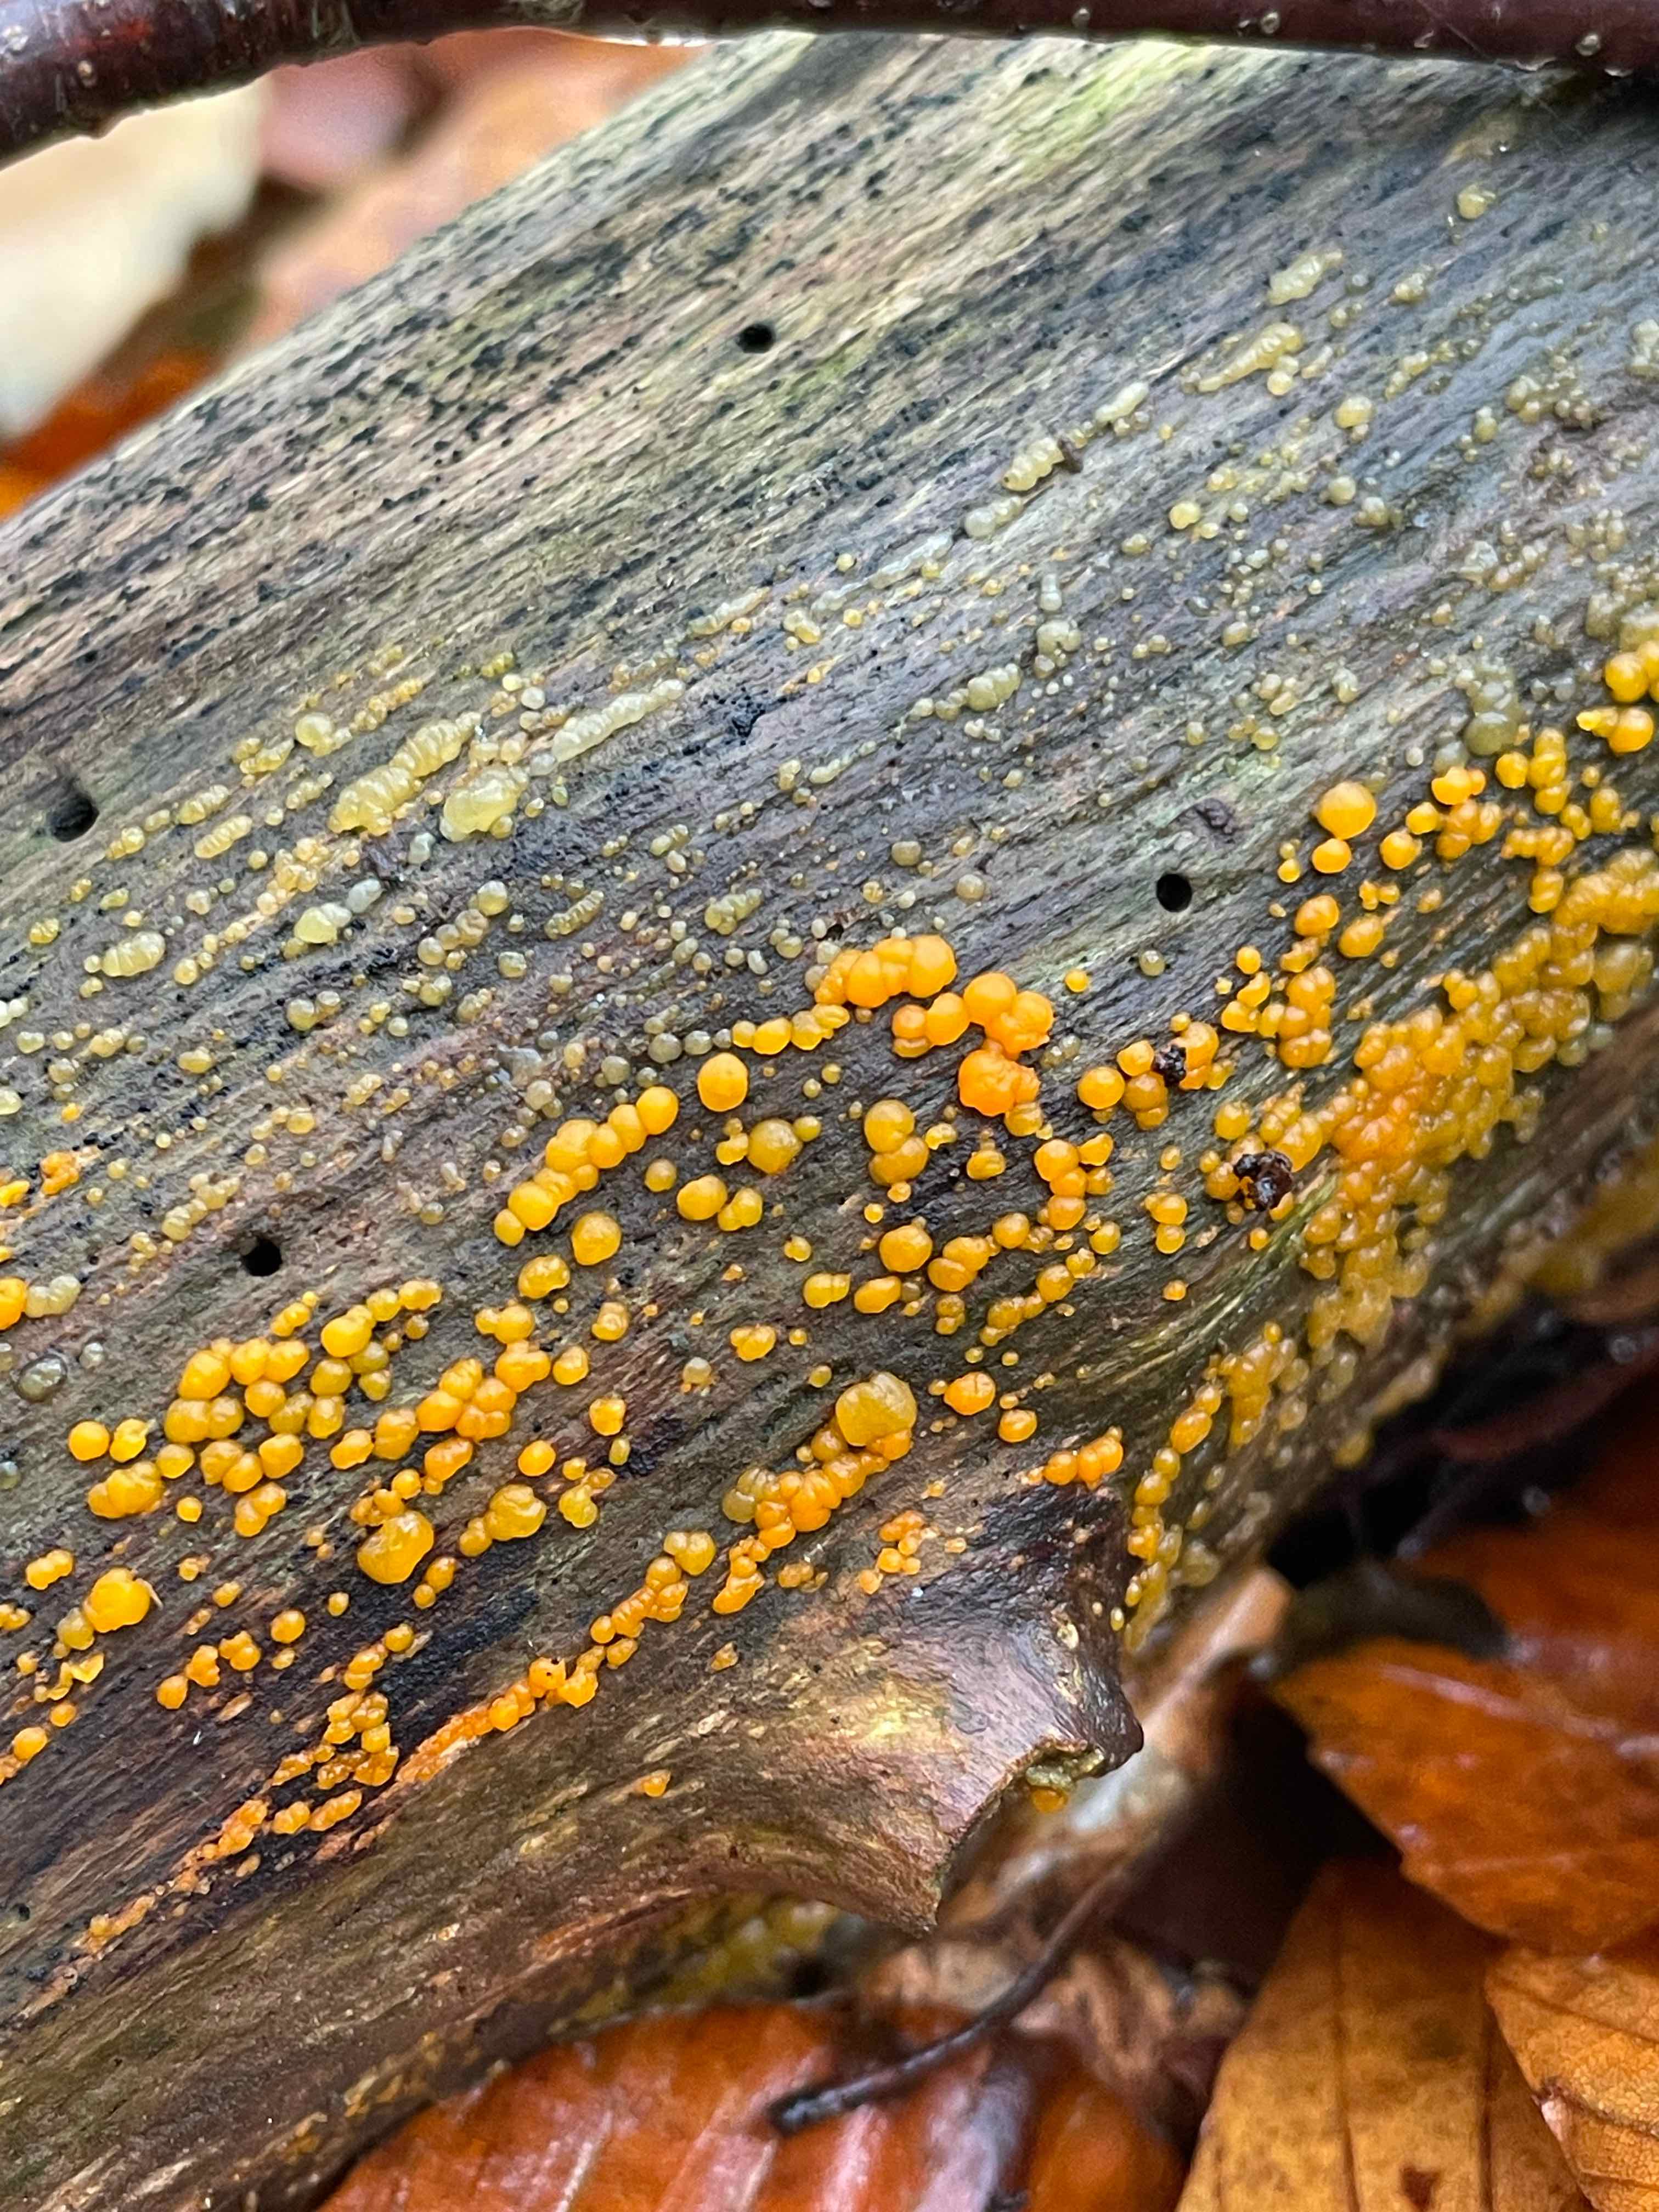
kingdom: Fungi
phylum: Basidiomycota
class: Dacrymycetes
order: Dacrymycetales
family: Dacrymycetaceae
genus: Dacrymyces
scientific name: Dacrymyces stillatus
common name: almindelig tåresvamp
